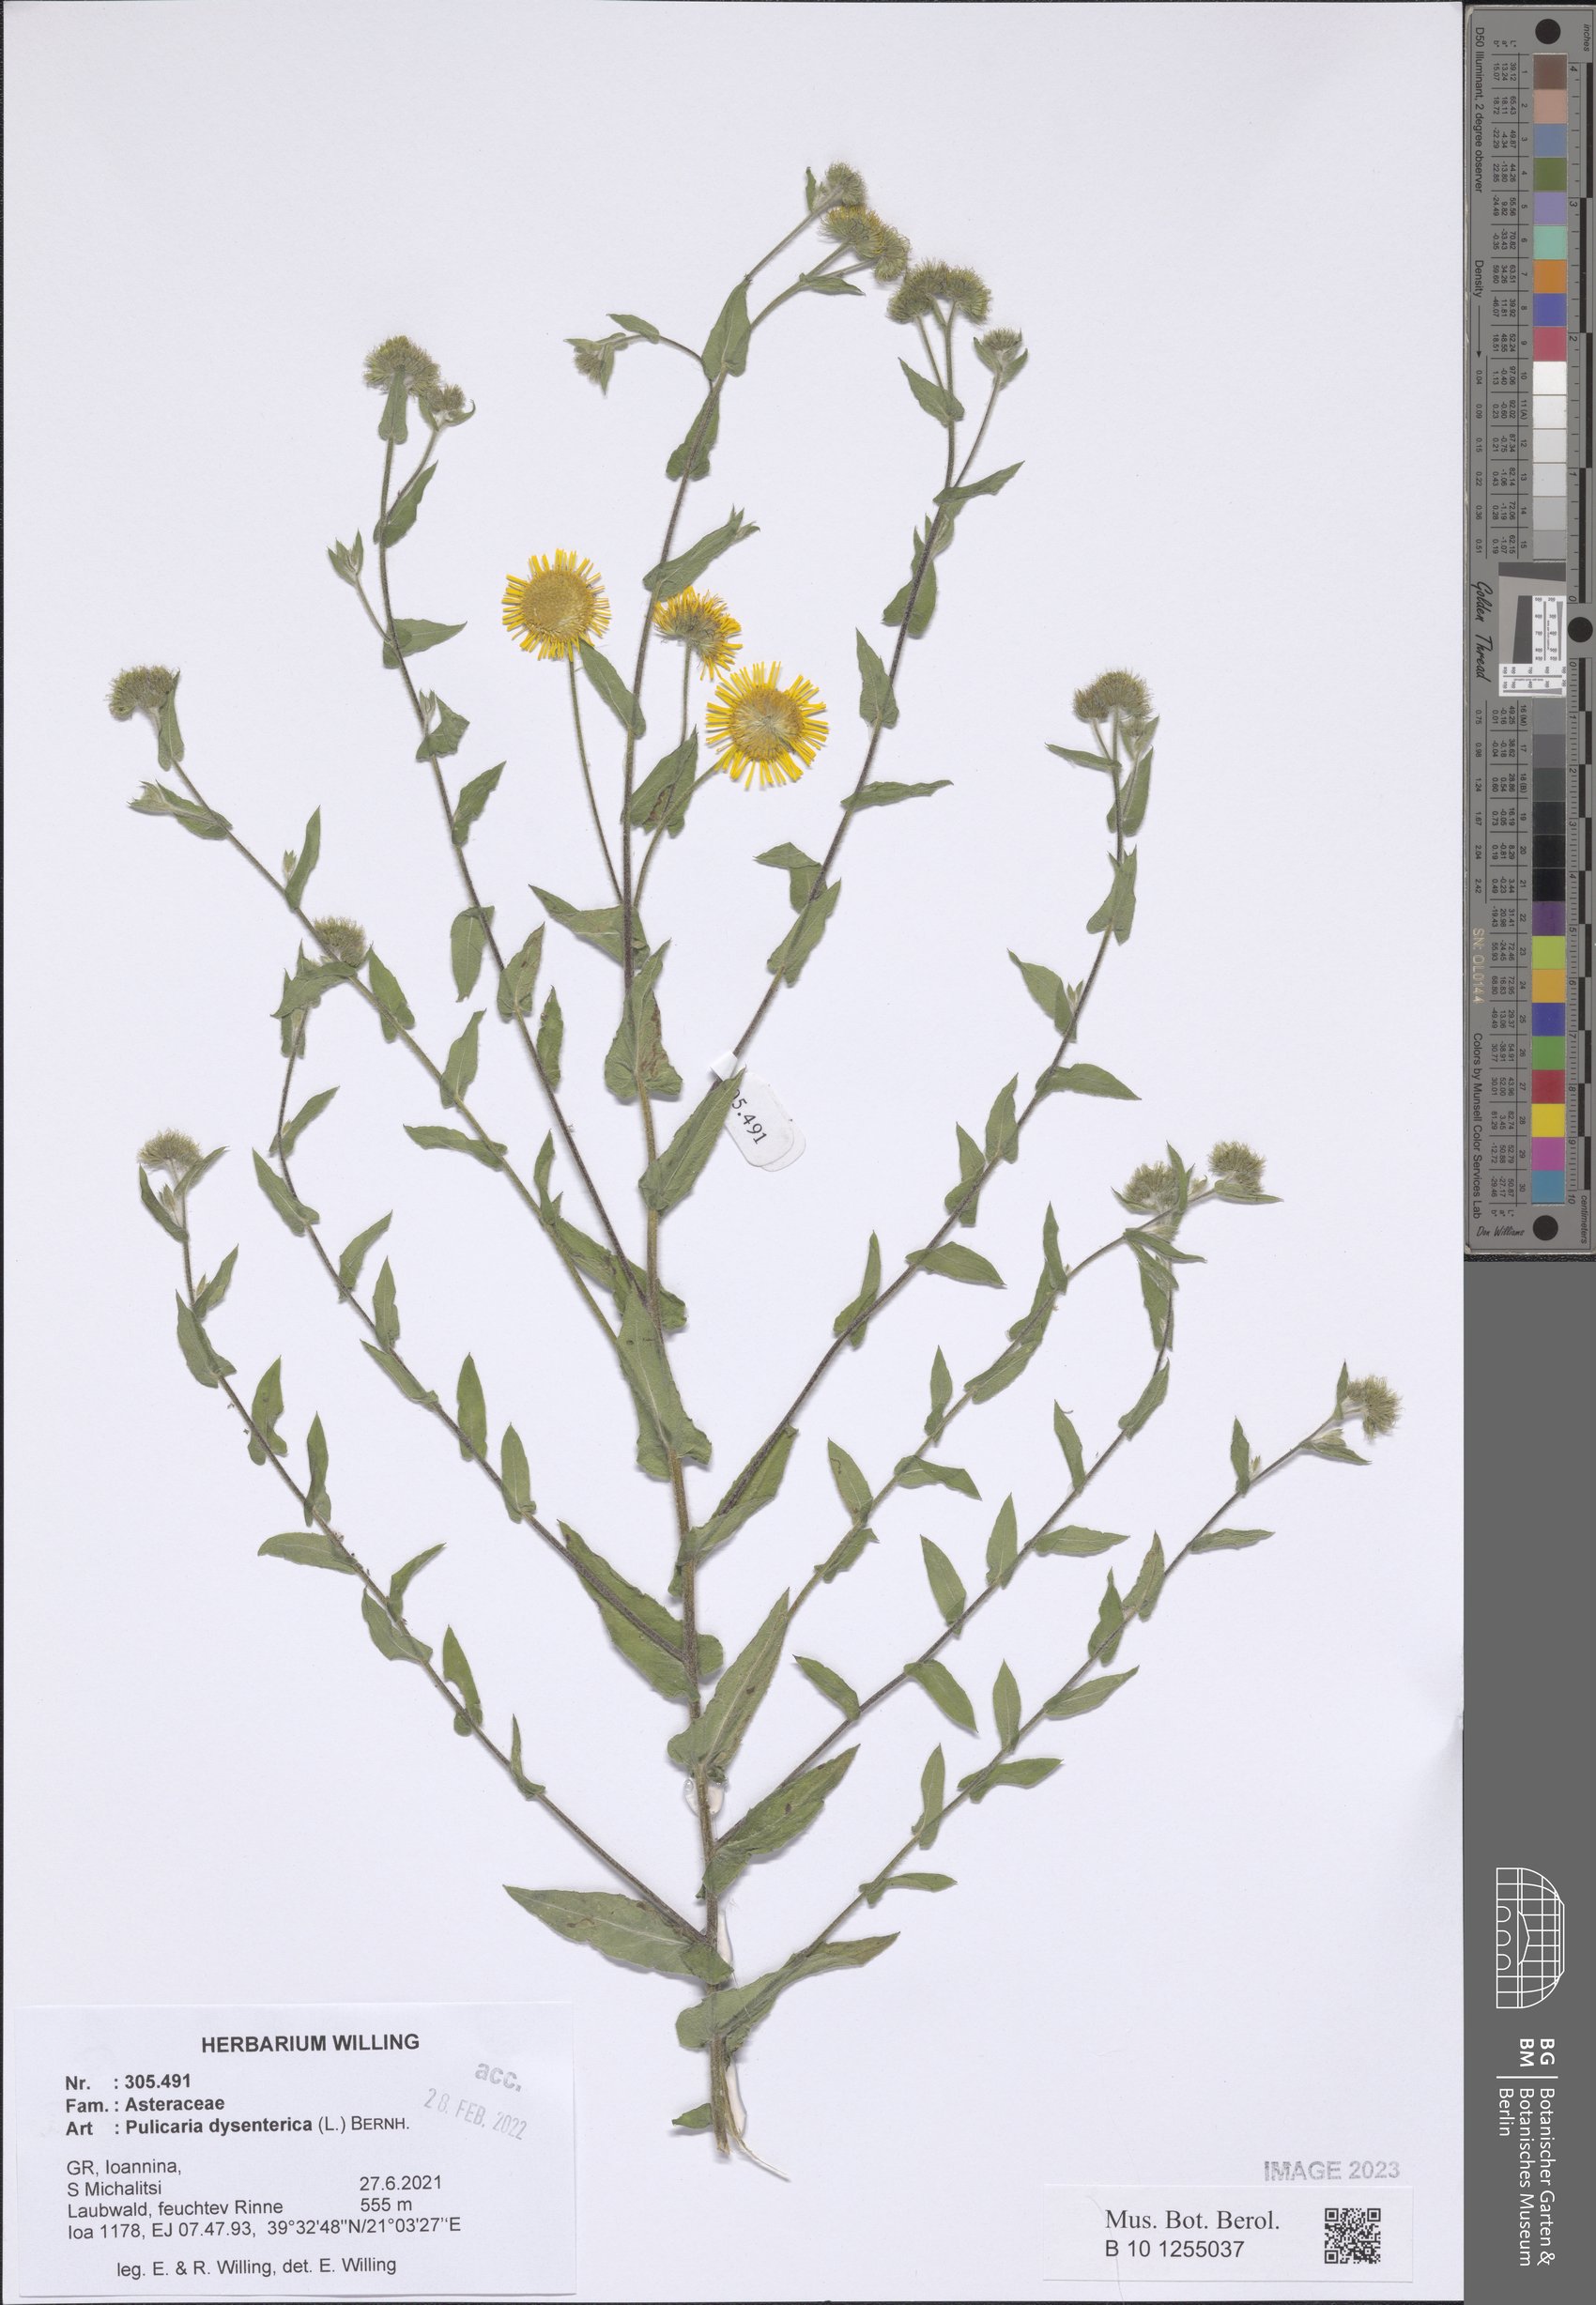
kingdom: Plantae
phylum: Tracheophyta
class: Magnoliopsida
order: Asterales
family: Asteraceae
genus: Pulicaria
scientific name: Pulicaria dysenterica
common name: Common fleabane
